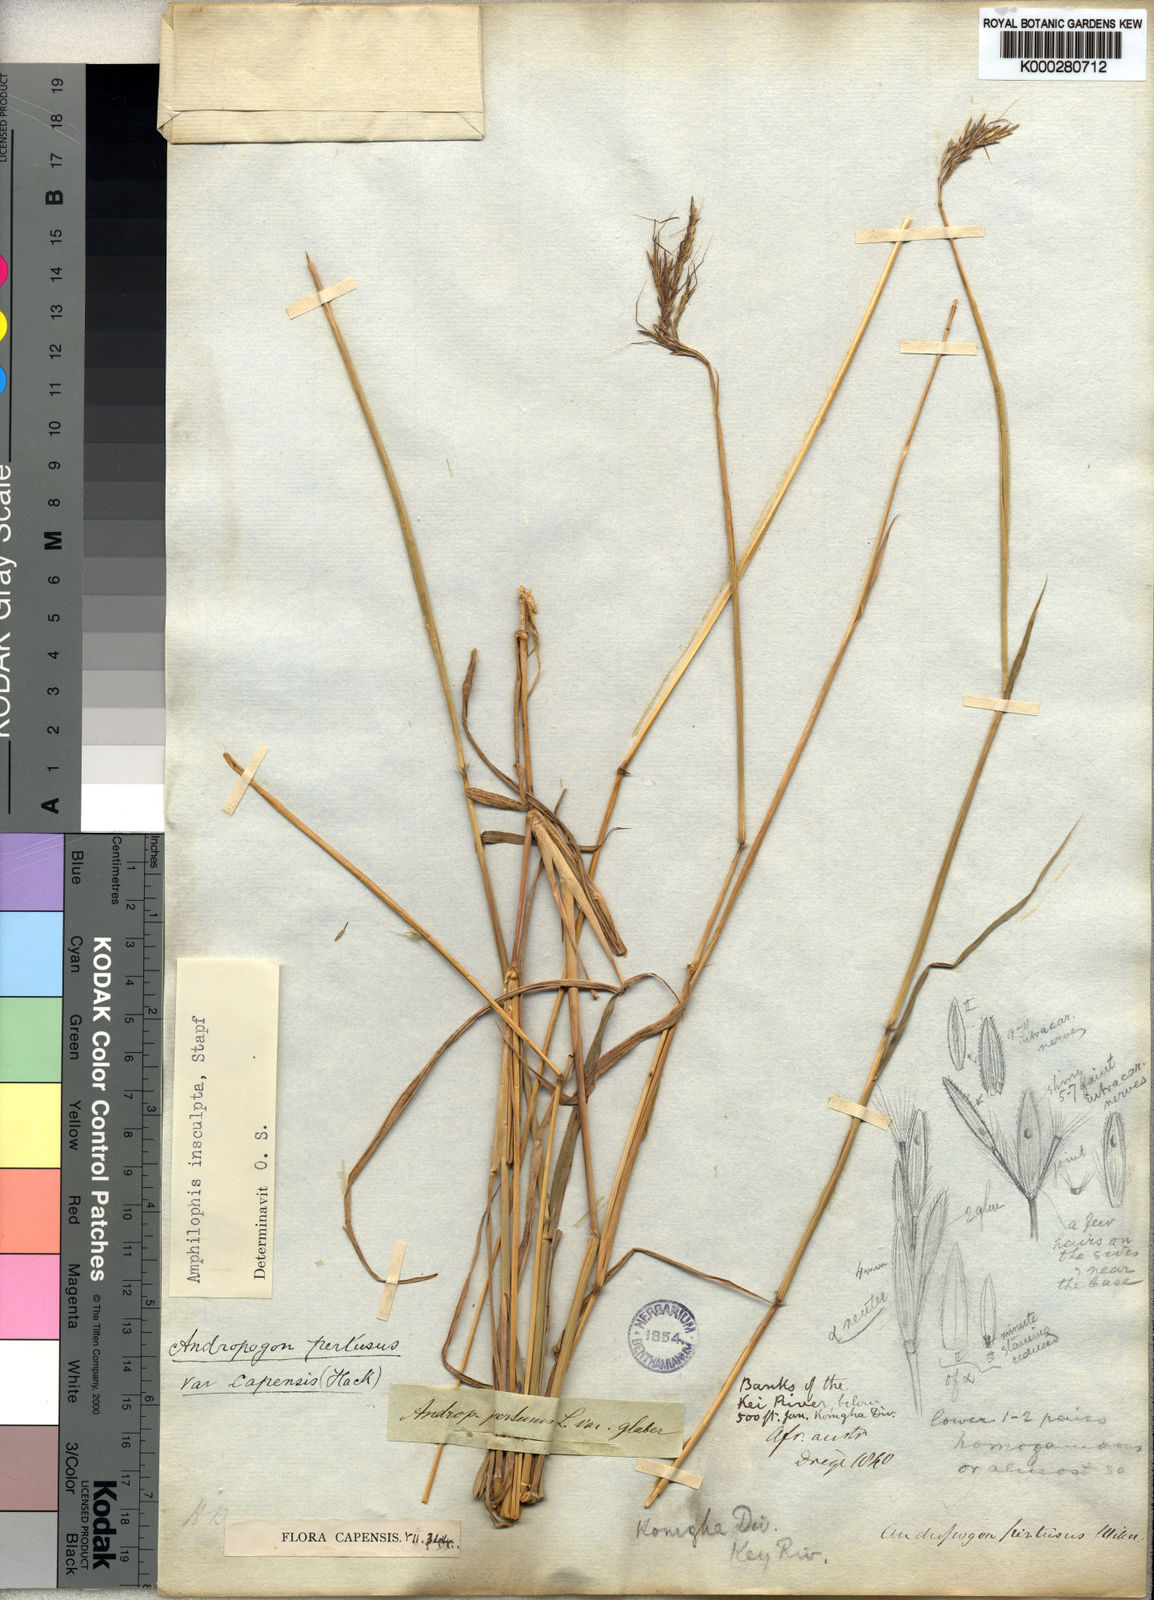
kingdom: Plantae
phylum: Tracheophyta
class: Liliopsida
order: Poales
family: Poaceae
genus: Bothriochloa
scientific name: Bothriochloa insculpta
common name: Creeping-bluegrass
